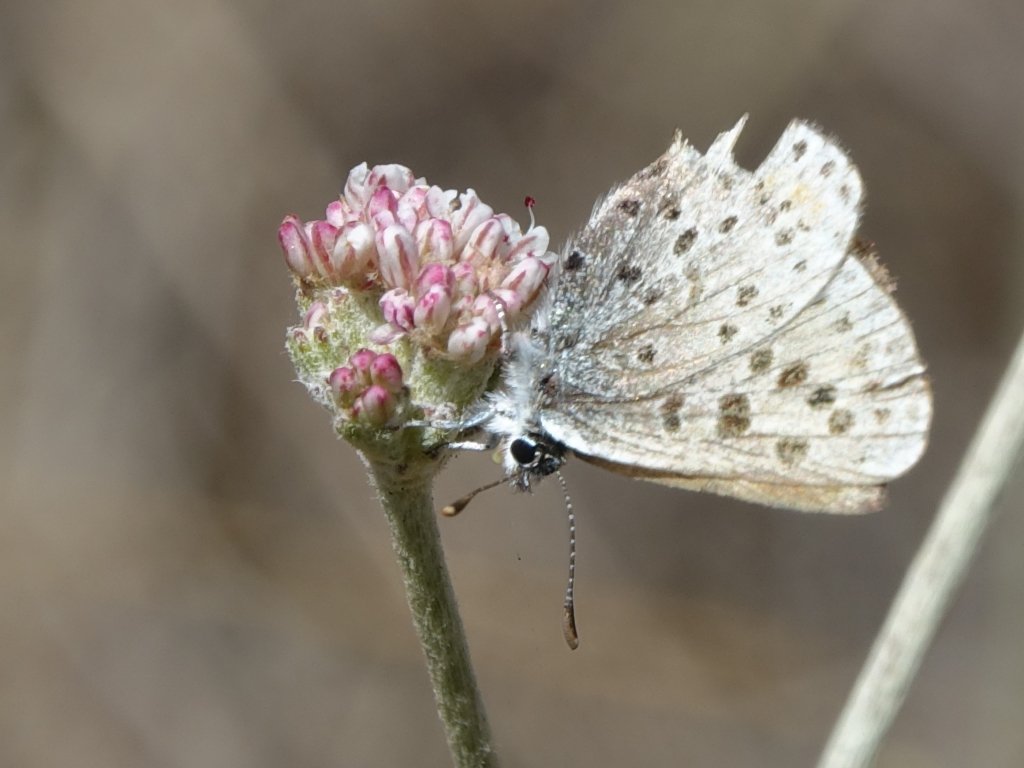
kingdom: Animalia
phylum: Arthropoda
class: Insecta
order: Lepidoptera
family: Lycaenidae
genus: Euphilotes
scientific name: Euphilotes enoptes
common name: Dotted Blue
